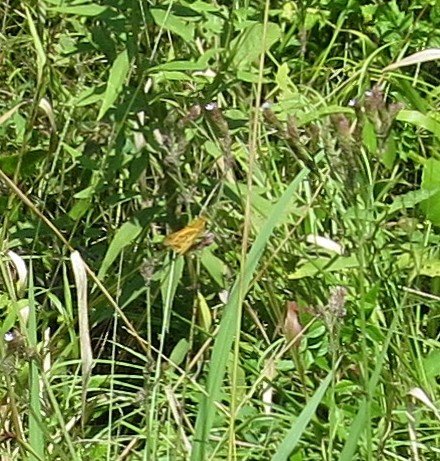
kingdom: Animalia
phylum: Arthropoda
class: Insecta
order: Lepidoptera
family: Hesperiidae
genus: Hylephila
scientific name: Hylephila phyleus
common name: Fiery Skipper
